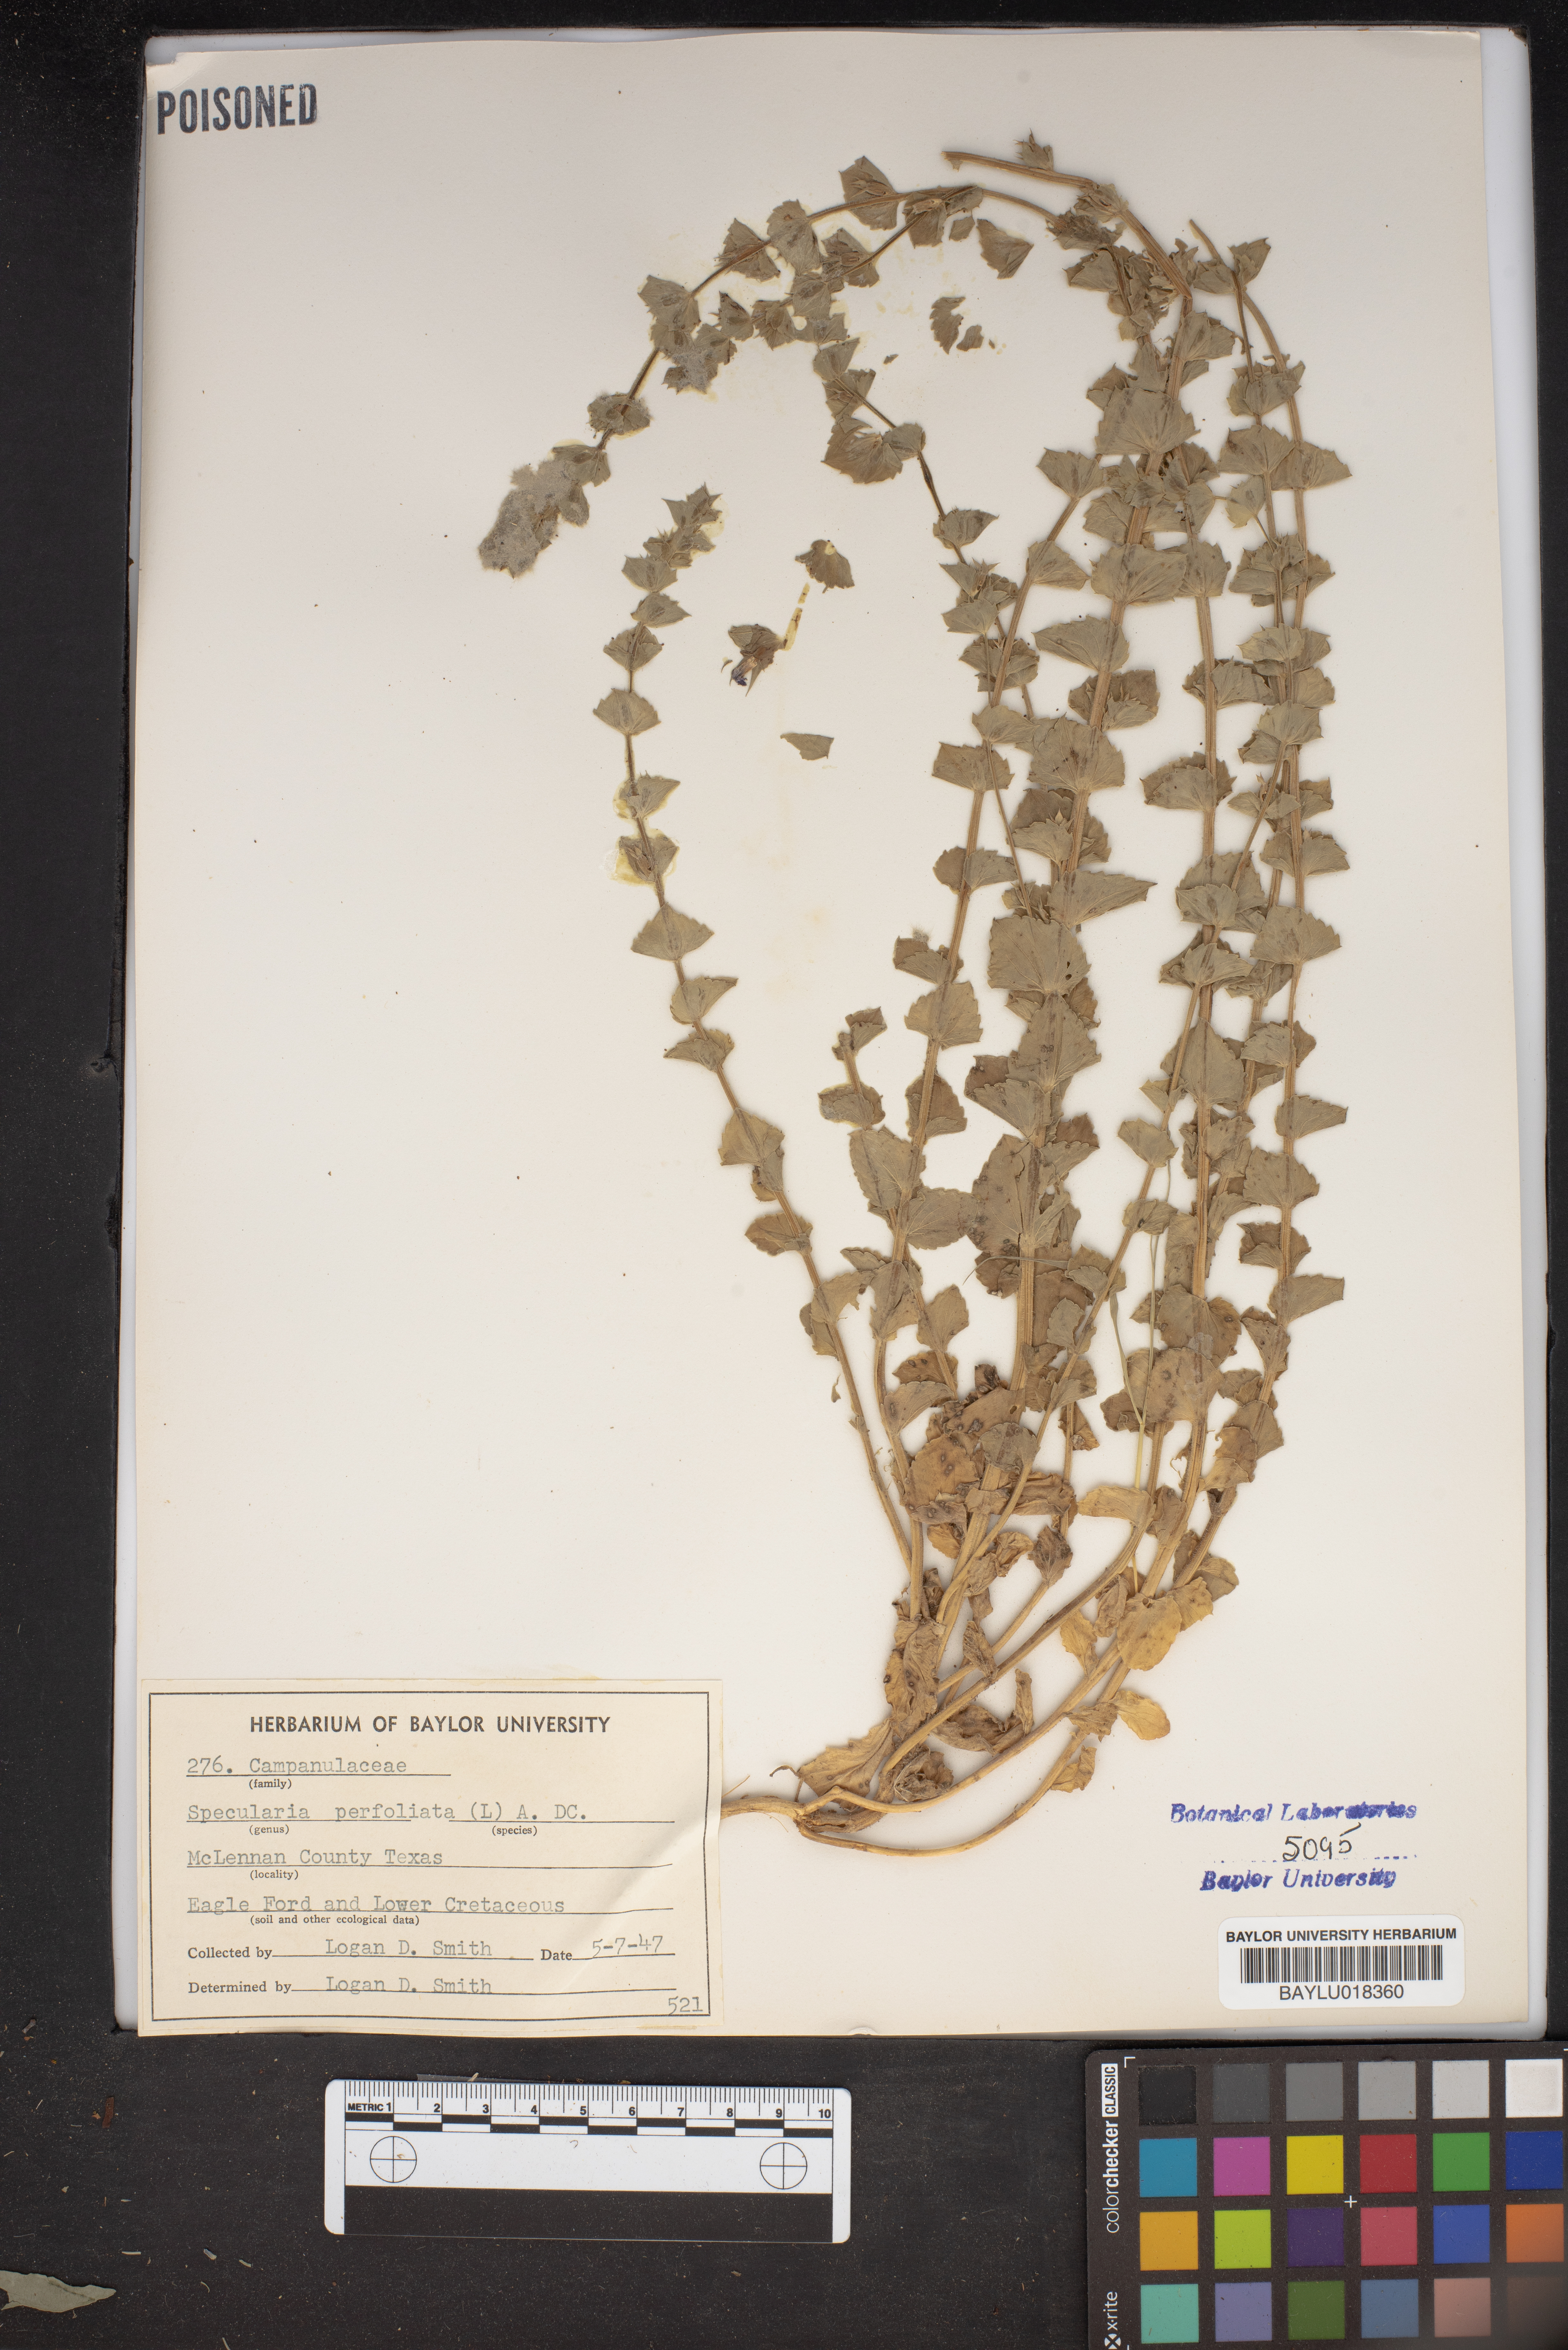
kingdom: Plantae
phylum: Tracheophyta
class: Magnoliopsida
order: Asterales
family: Campanulaceae
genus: Triodanis
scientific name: Triodanis perfoliata
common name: Clasping venus' looking-glass
